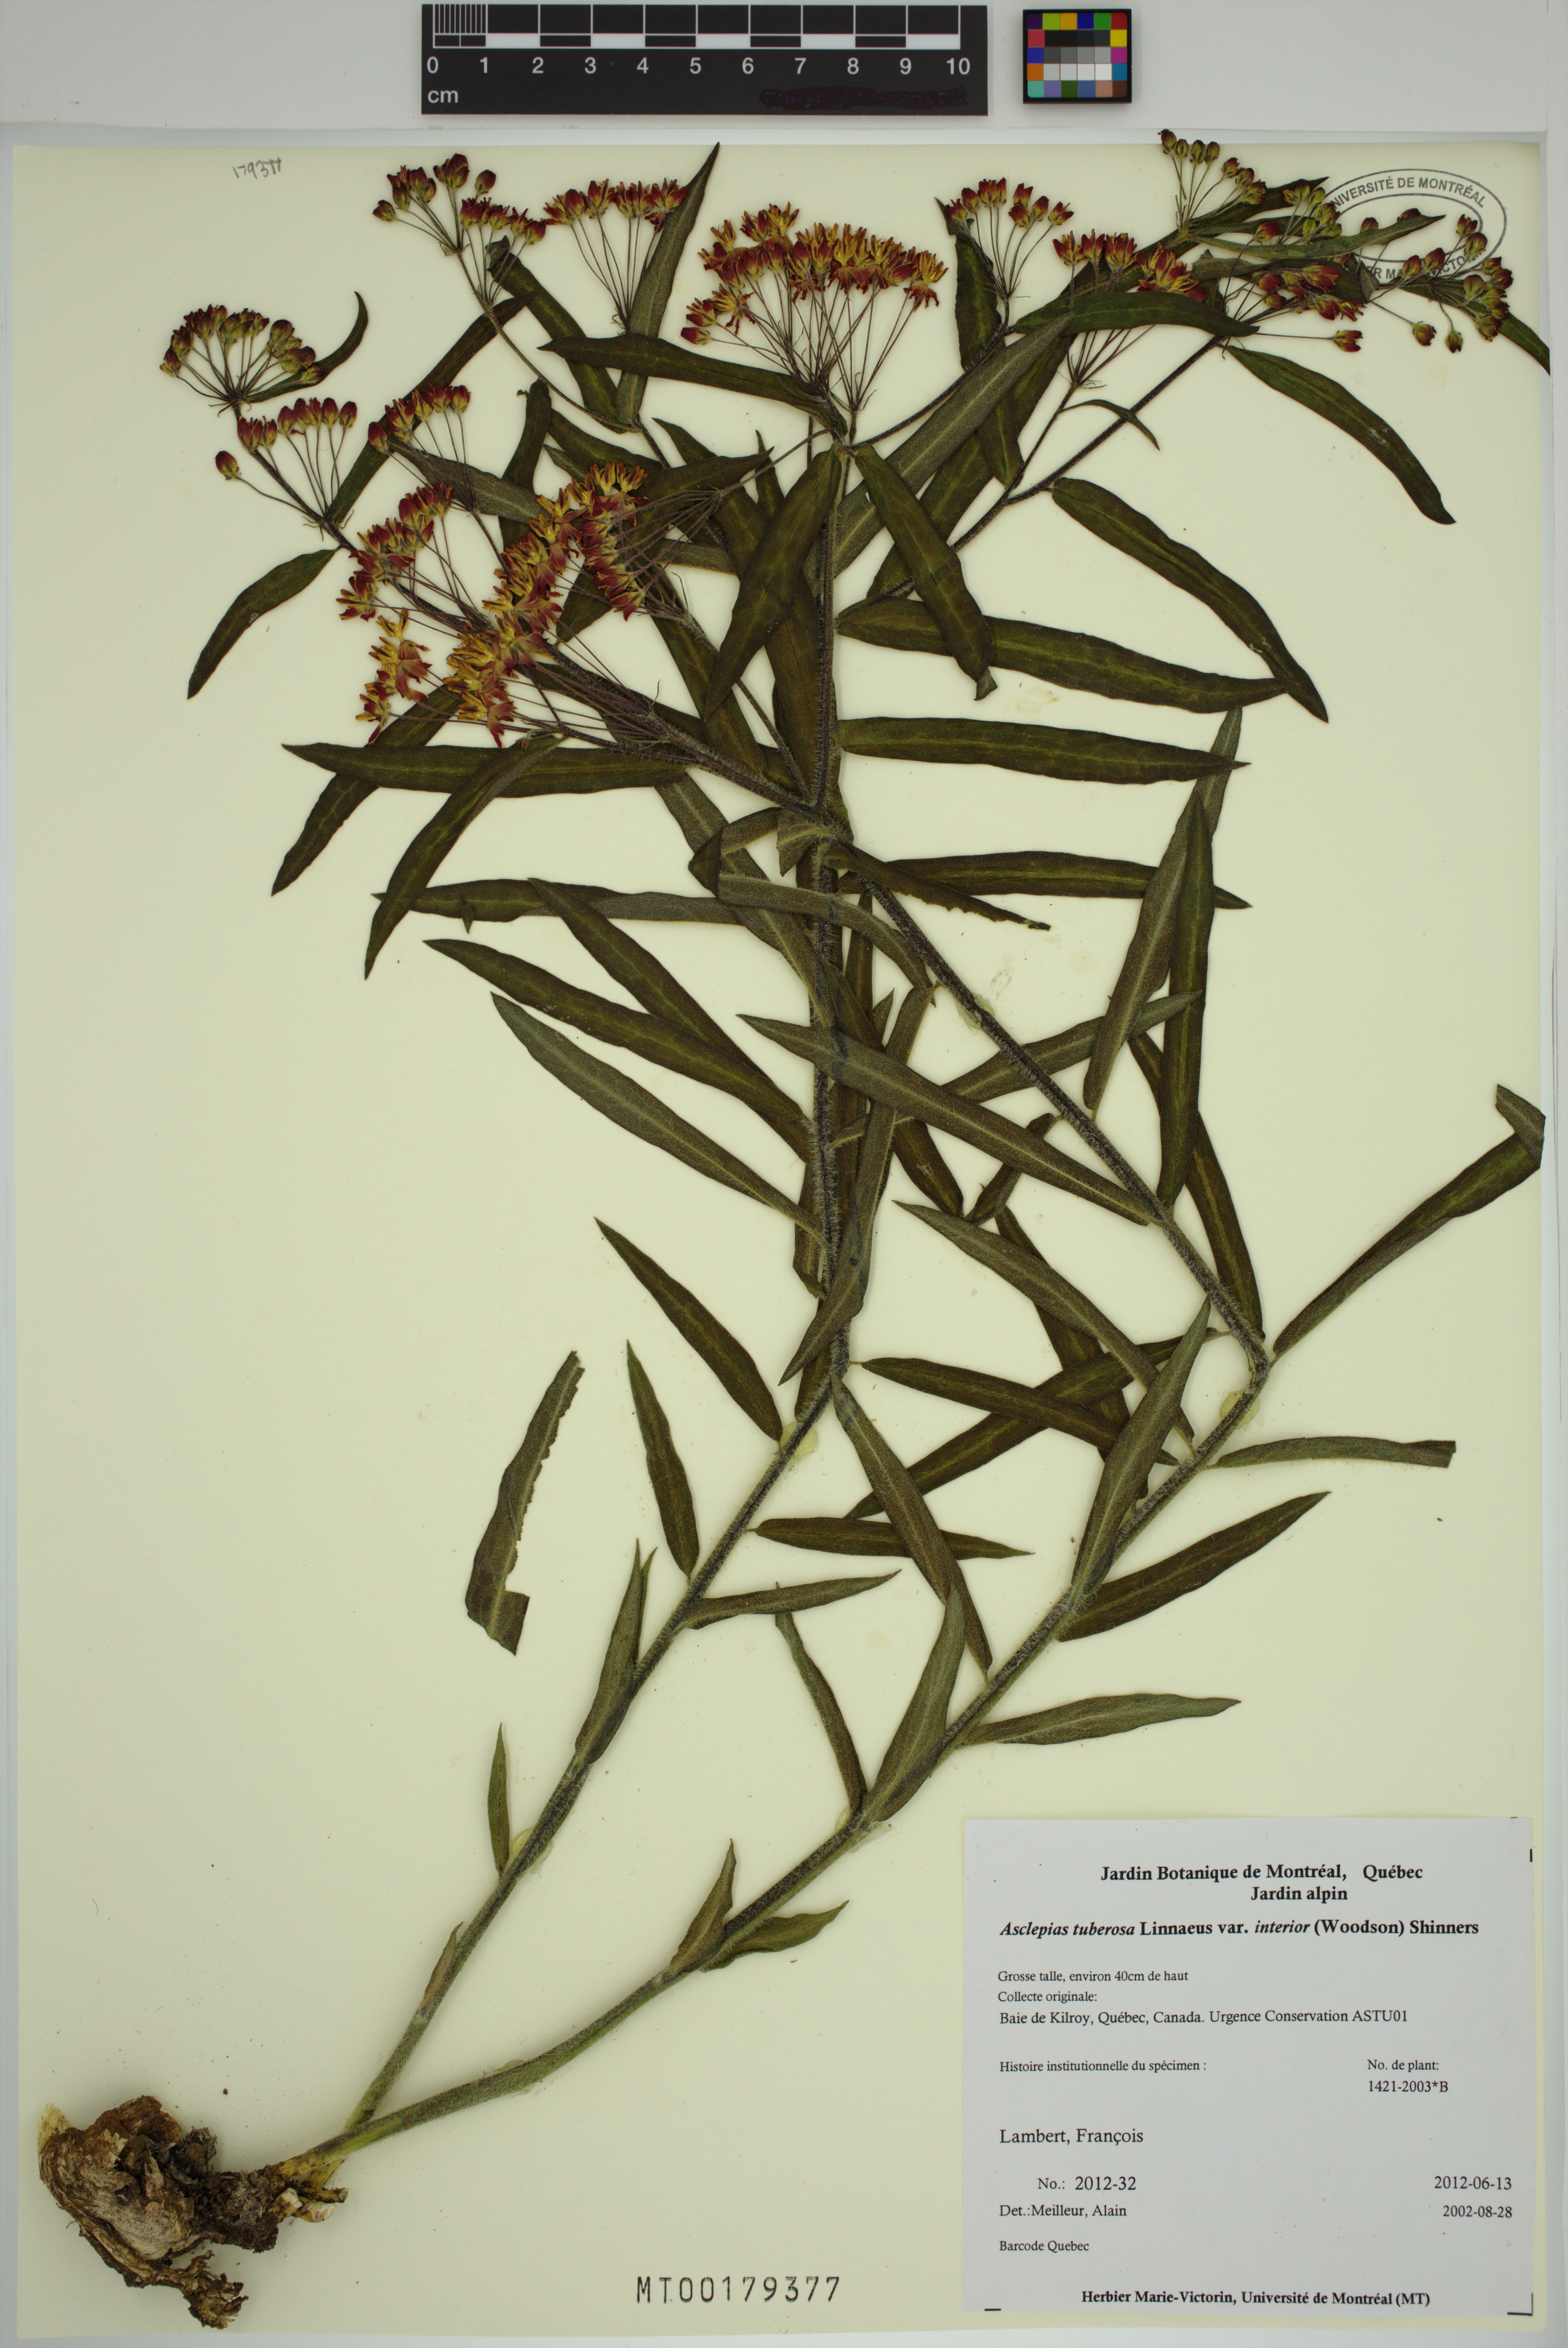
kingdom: Plantae
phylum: Tracheophyta
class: Magnoliopsida
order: Gentianales
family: Apocynaceae
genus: Asclepias
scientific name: Asclepias tuberosa
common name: Butterfly milkweed
